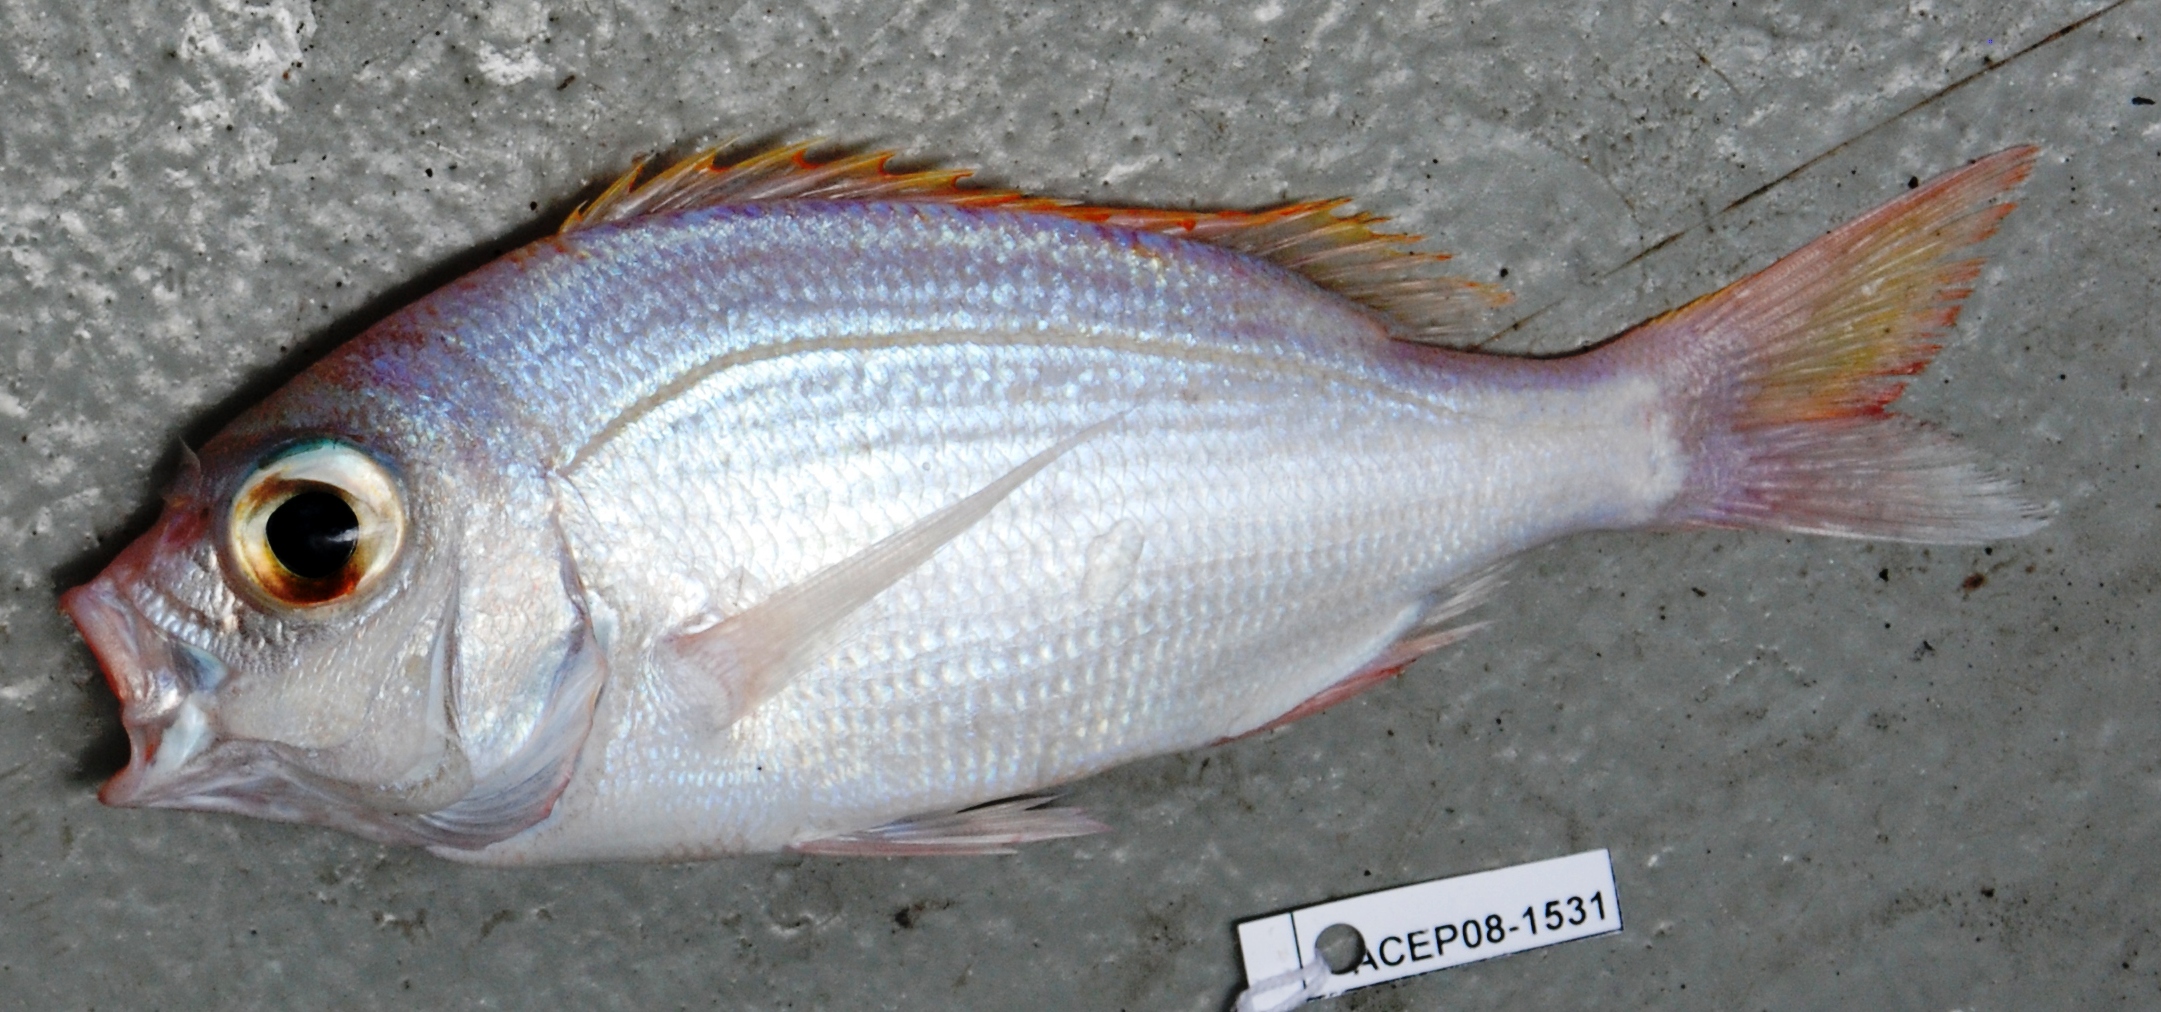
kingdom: Animalia
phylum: Chordata
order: Perciformes
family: Sparidae
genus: Polysteganus
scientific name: Polysteganus flavodorsalis
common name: Yellowfin seabream
